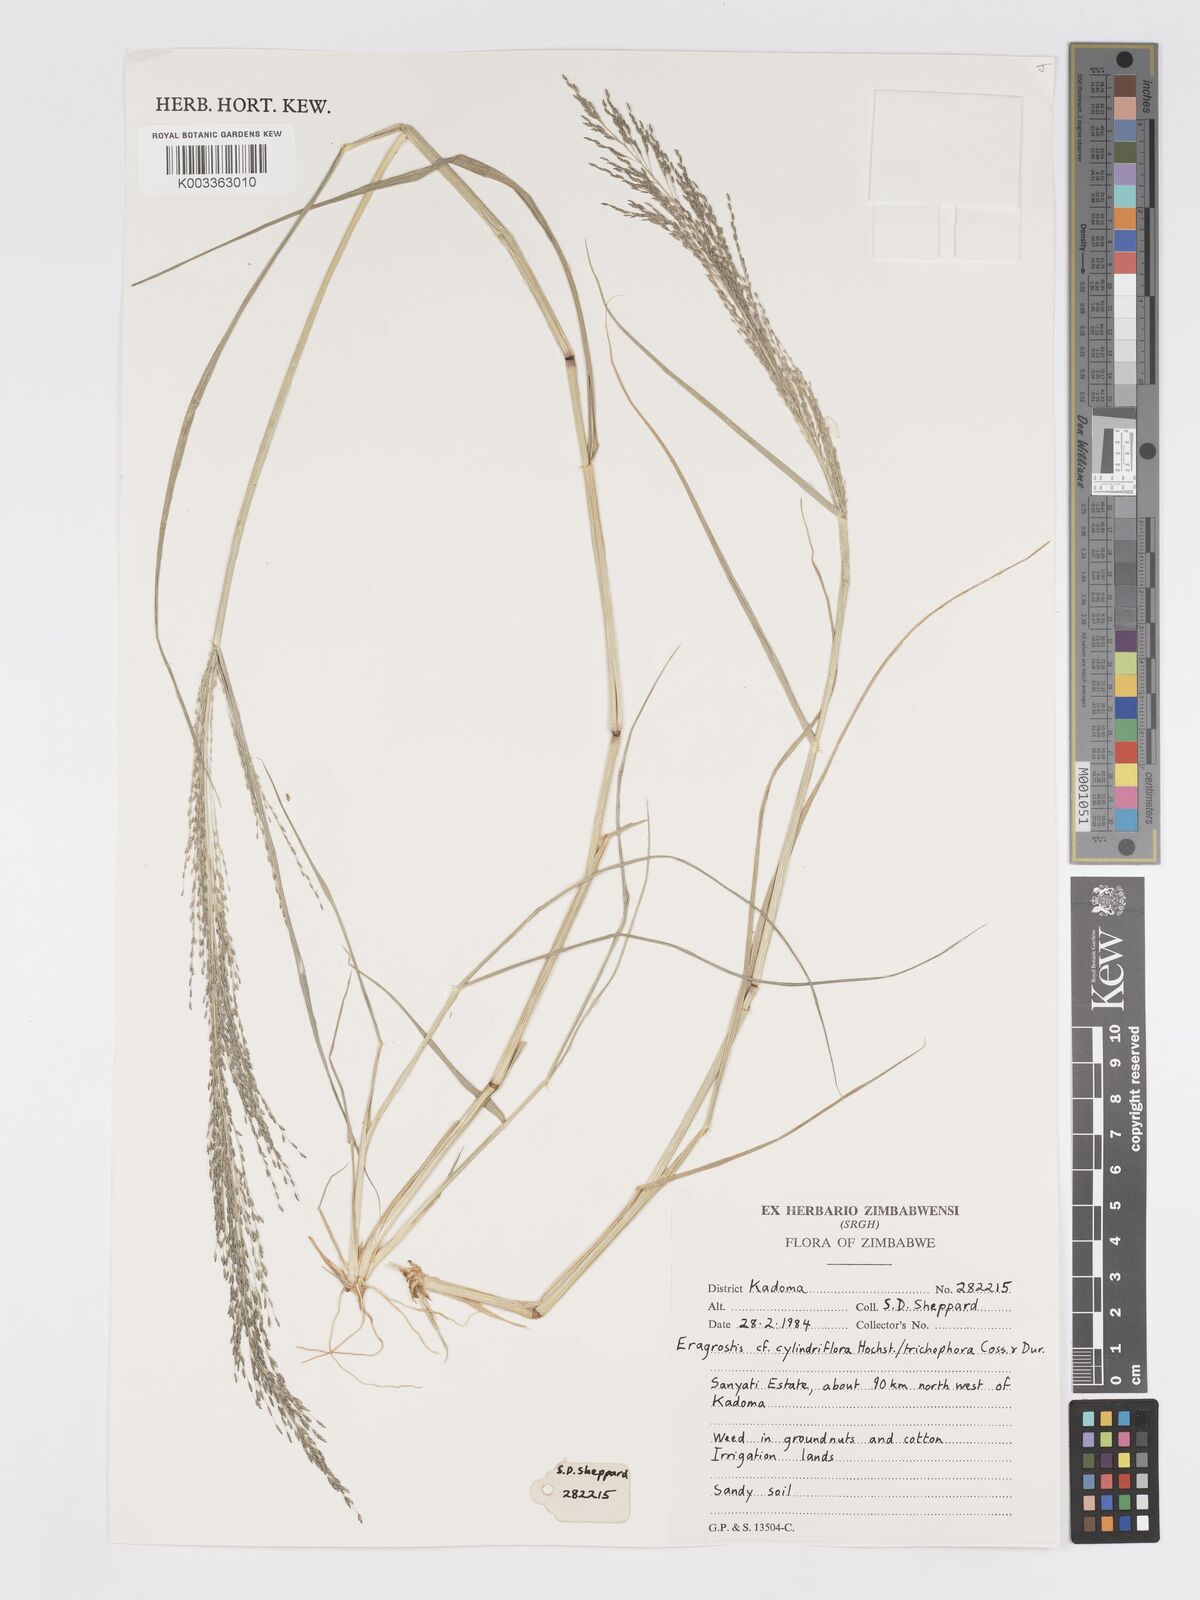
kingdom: Plantae
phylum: Tracheophyta
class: Liliopsida
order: Poales
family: Poaceae
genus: Eragrostis
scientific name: Eragrostis cylindriflora
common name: Cylinderflower lovegrass
